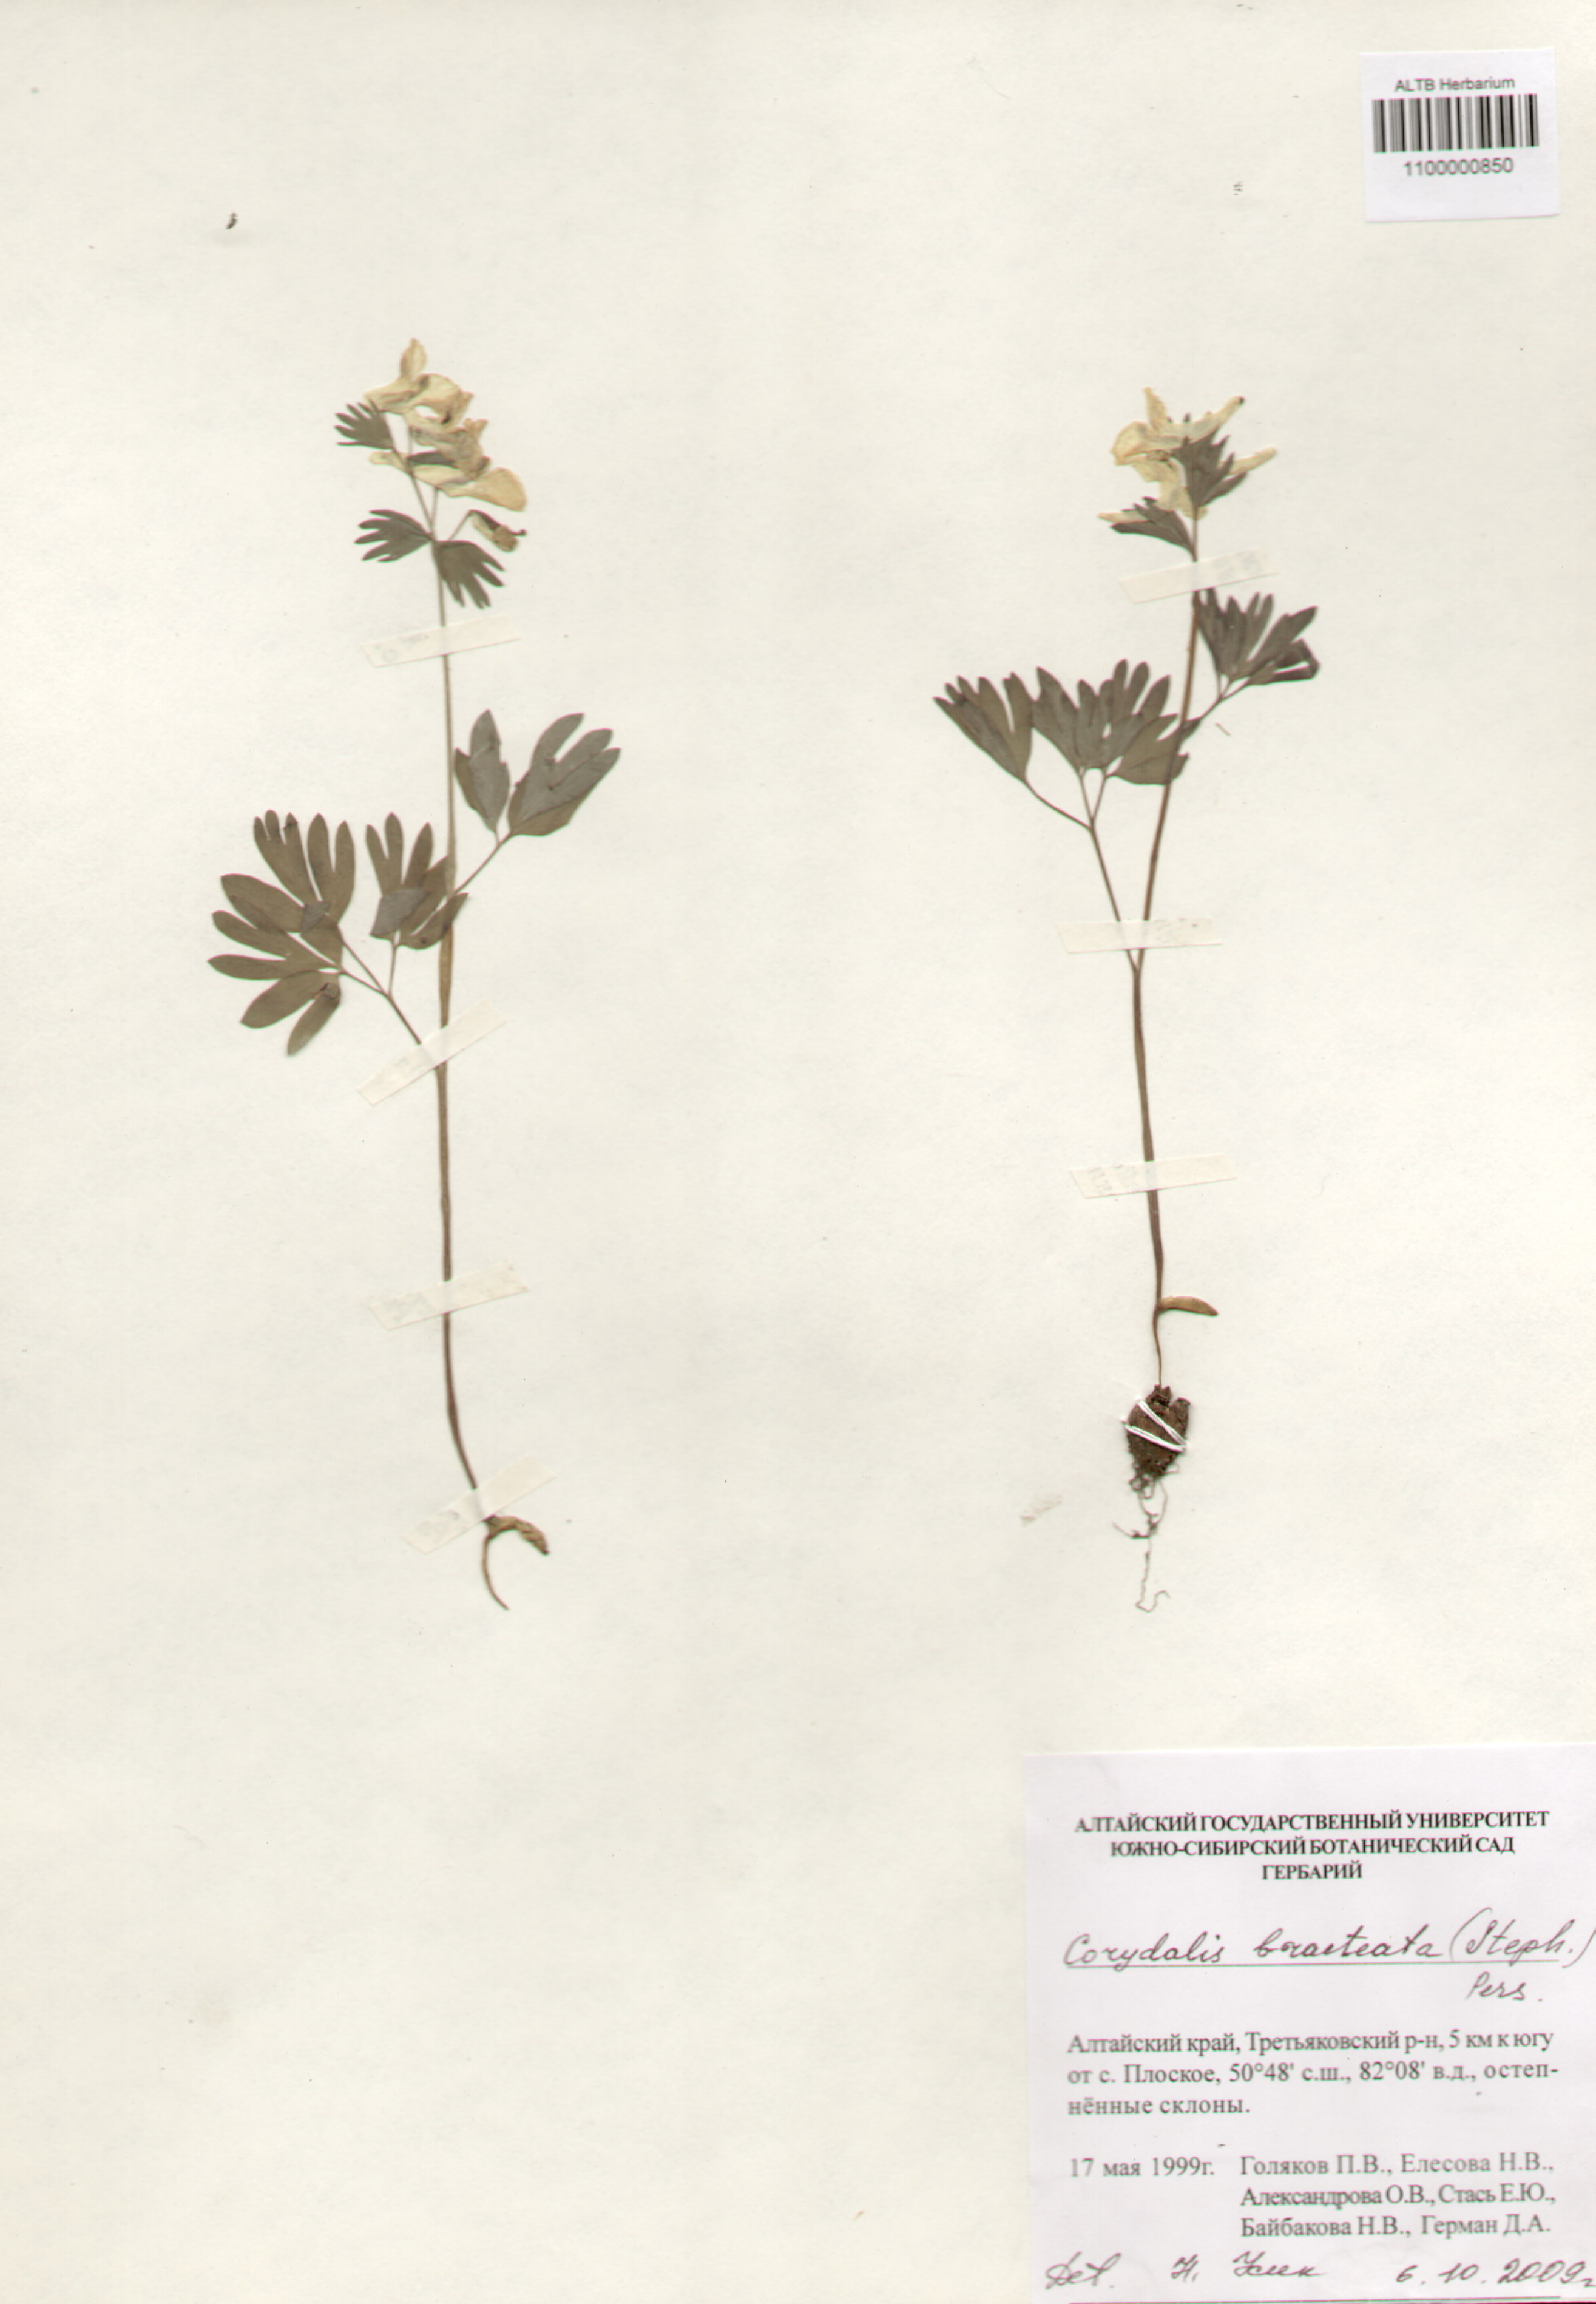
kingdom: Plantae
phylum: Tracheophyta
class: Magnoliopsida
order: Ranunculales
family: Papaveraceae
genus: Corydalis
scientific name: Corydalis bracteata
